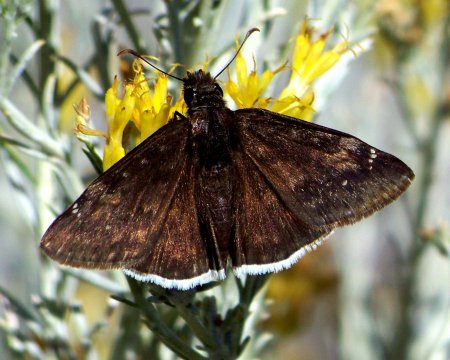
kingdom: Animalia
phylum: Arthropoda
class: Insecta
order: Lepidoptera
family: Hesperiidae
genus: Erynnis
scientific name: Erynnis funeralis
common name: Funereal Duskywing
